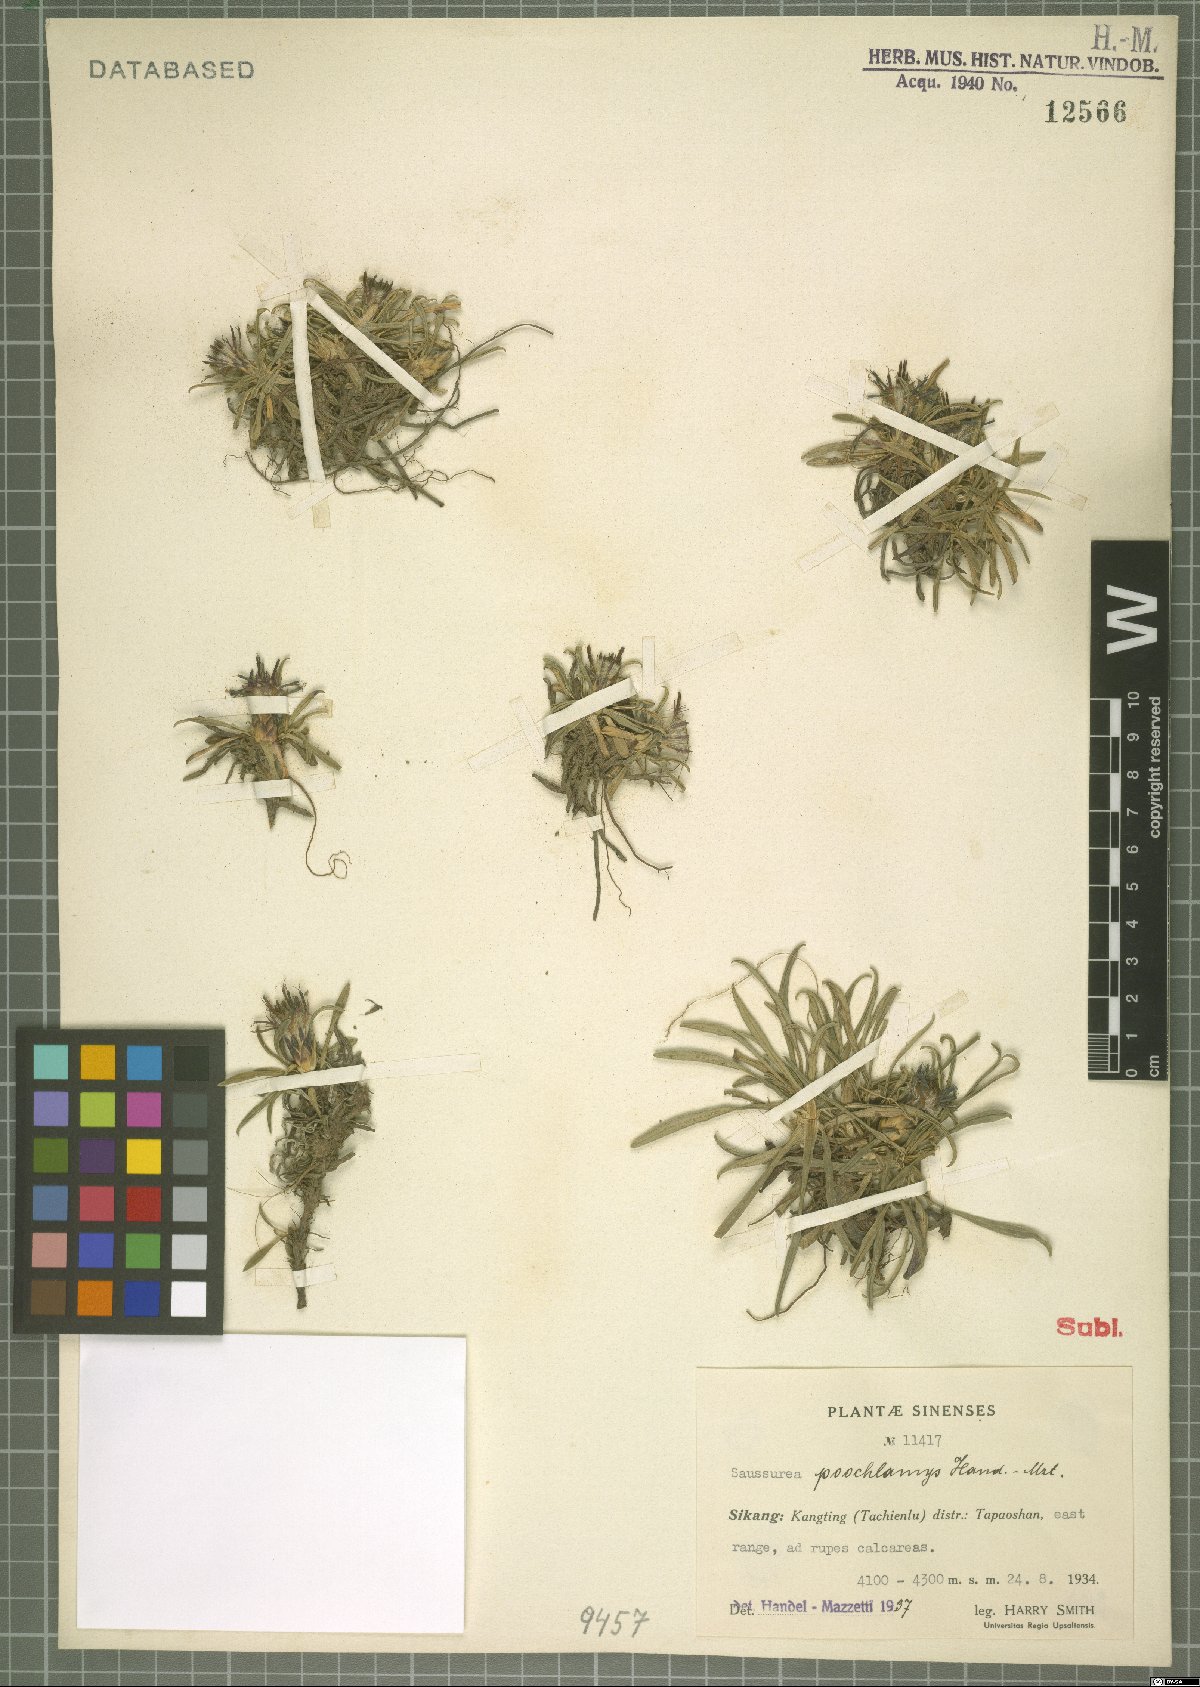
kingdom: Plantae
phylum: Tracheophyta
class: Magnoliopsida
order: Asterales
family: Asteraceae
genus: Saussurea
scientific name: Saussurea poochlamys
